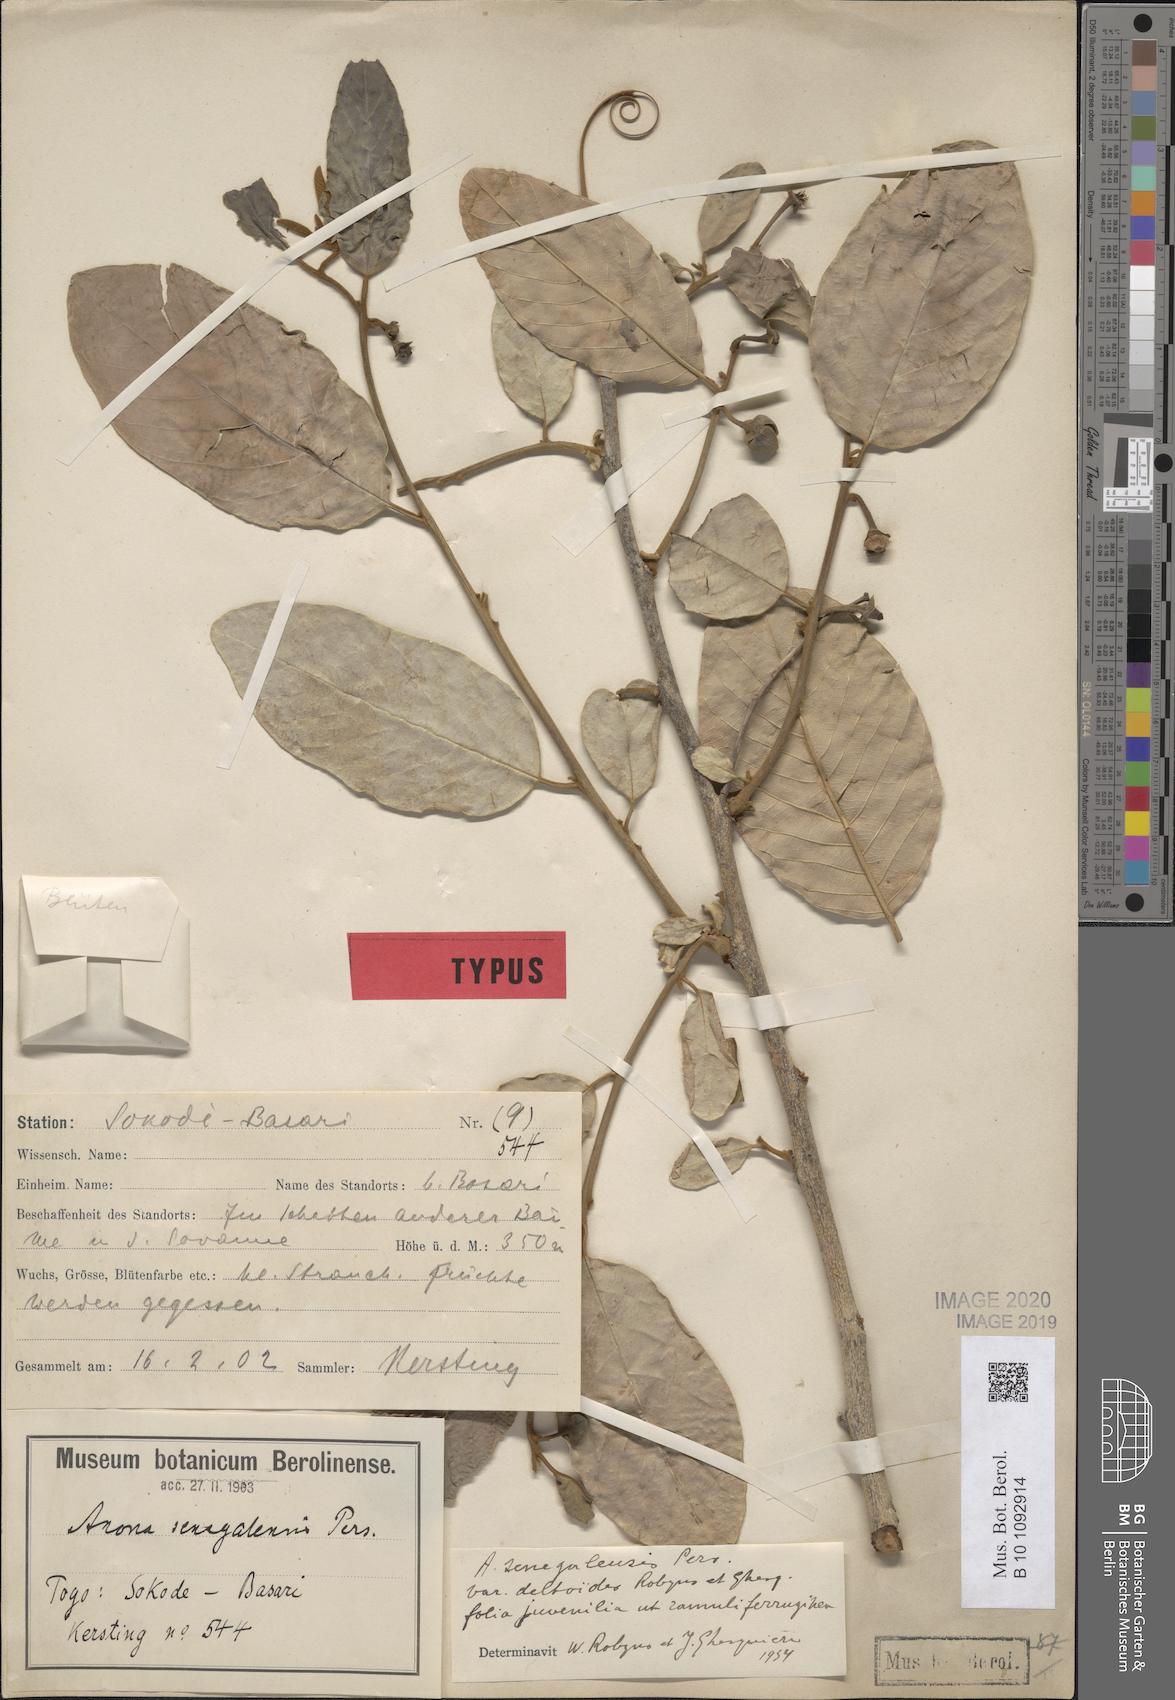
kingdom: Plantae
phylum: Tracheophyta
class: Magnoliopsida
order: Magnoliales
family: Annonaceae
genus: Annona
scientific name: Annona senegalensis
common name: Wild custard-apple
